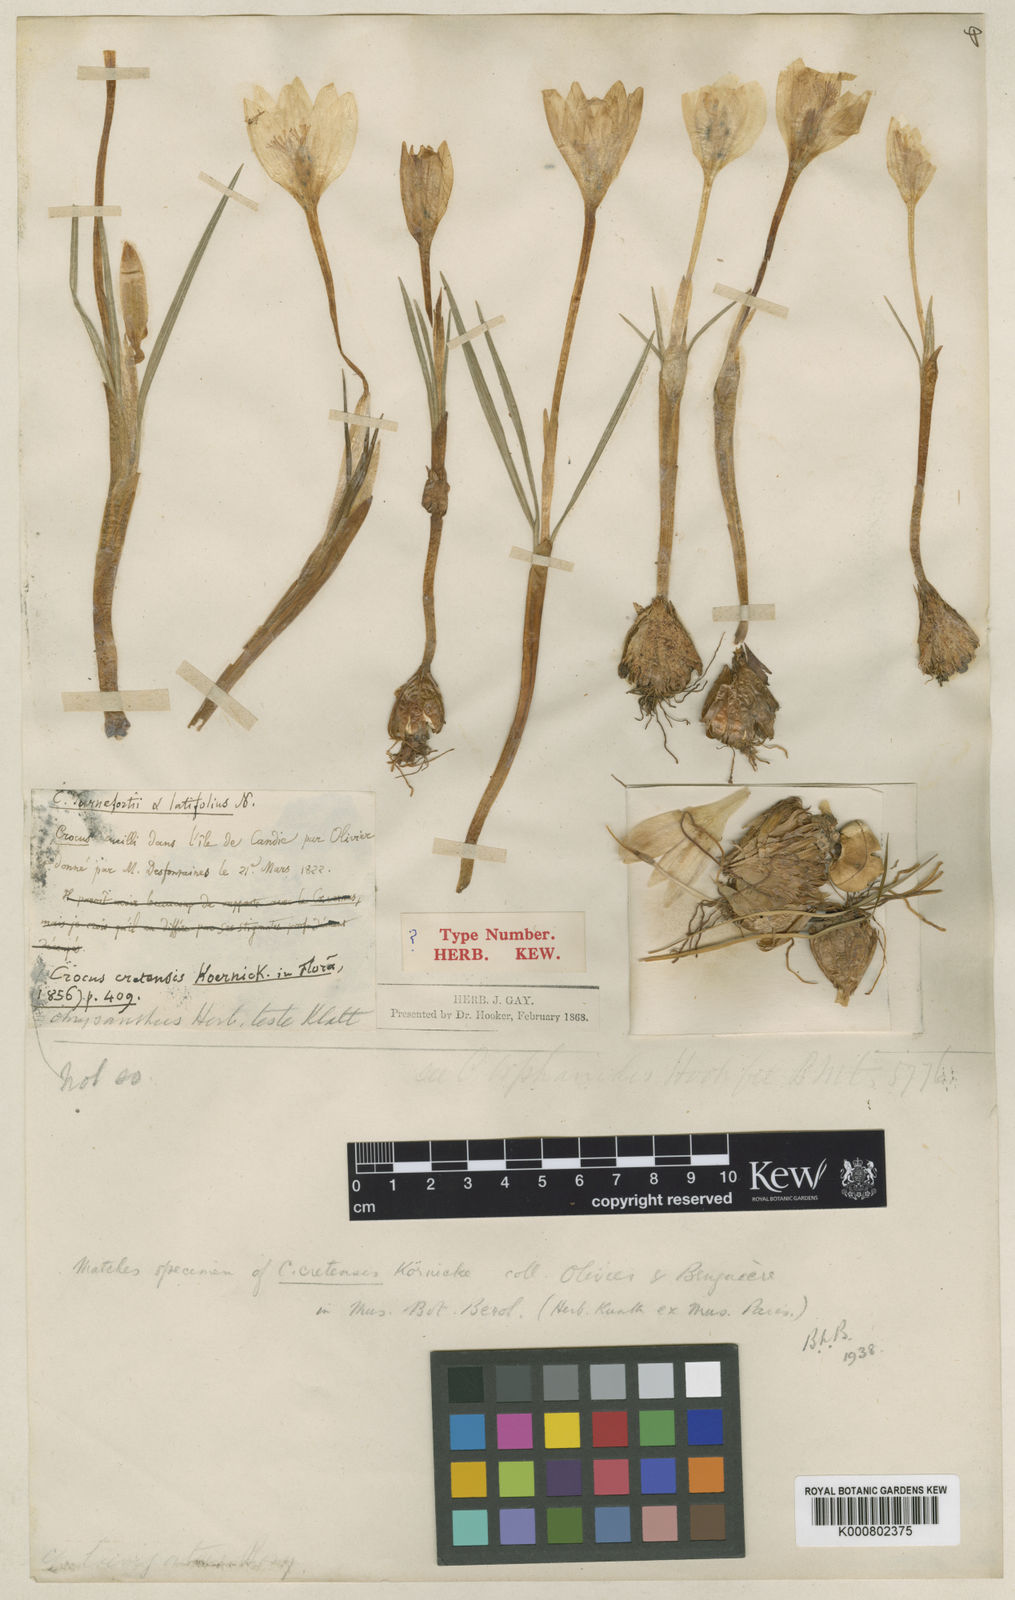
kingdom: Plantae
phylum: Tracheophyta
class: Liliopsida
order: Asparagales
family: Iridaceae
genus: Crocus
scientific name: Crocus boryi
